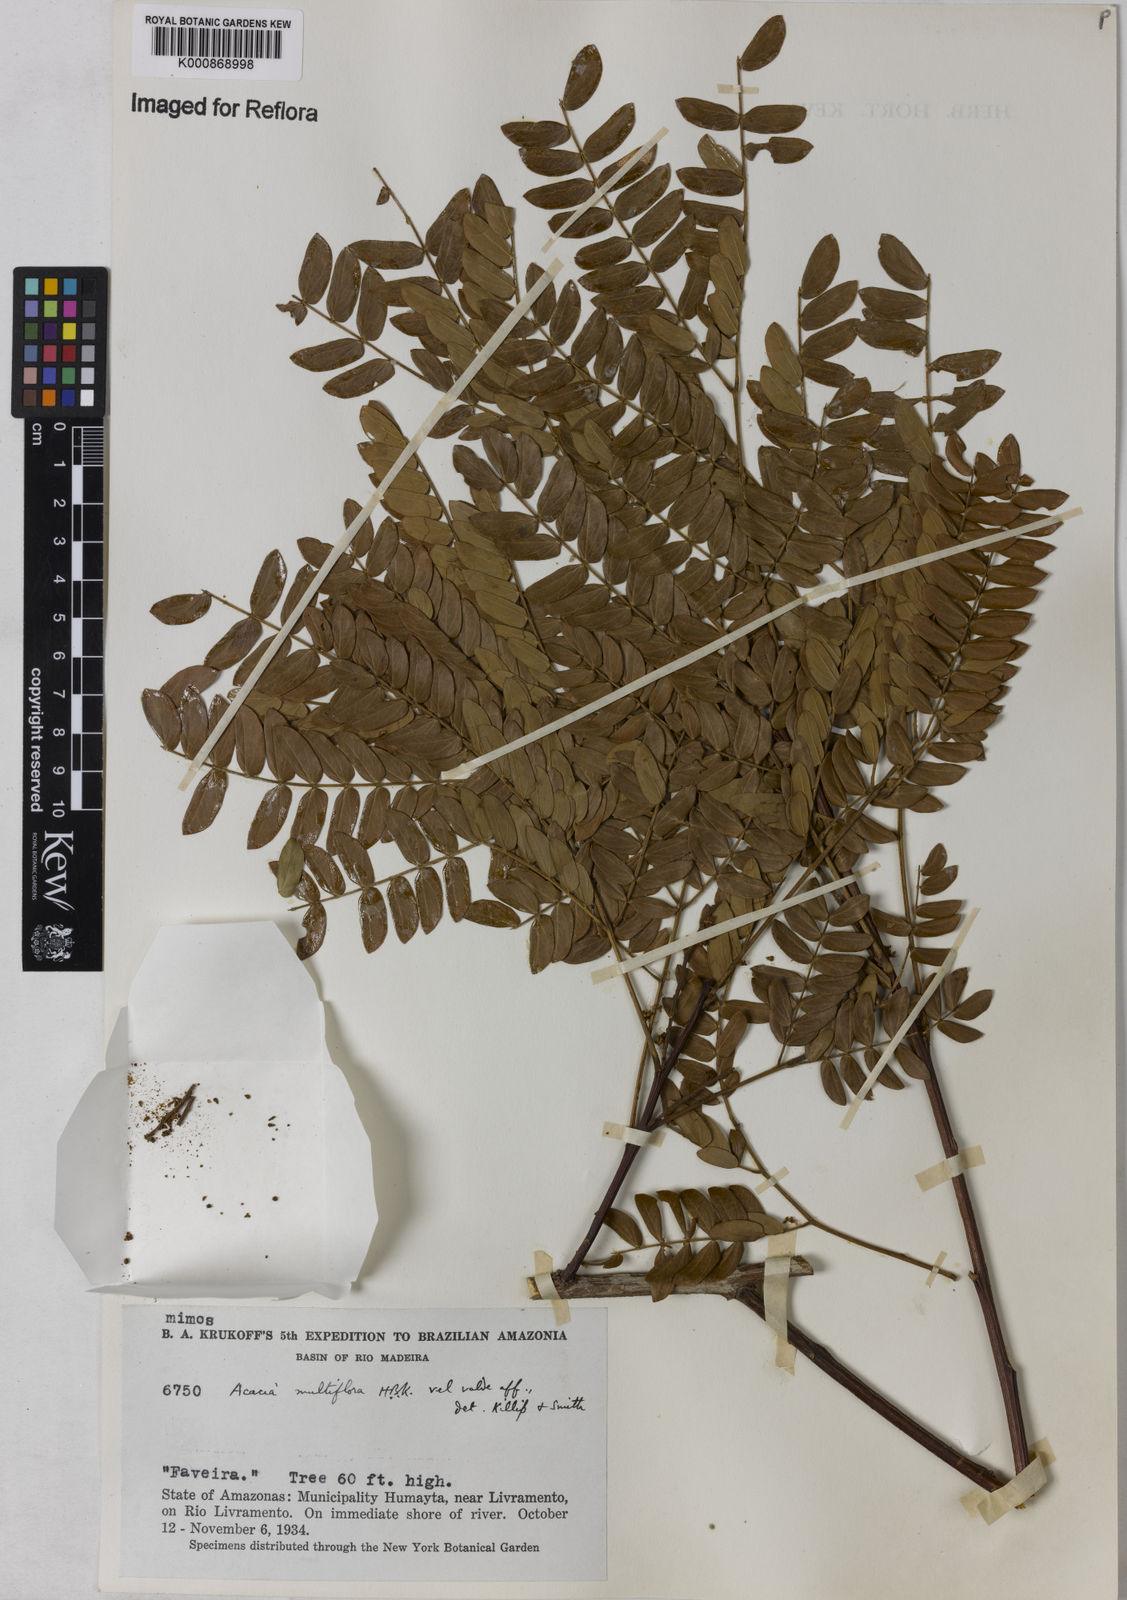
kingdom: Plantae
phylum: Tracheophyta
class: Magnoliopsida
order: Fabales
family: Fabaceae
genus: Albizia
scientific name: Albizia multiflora
